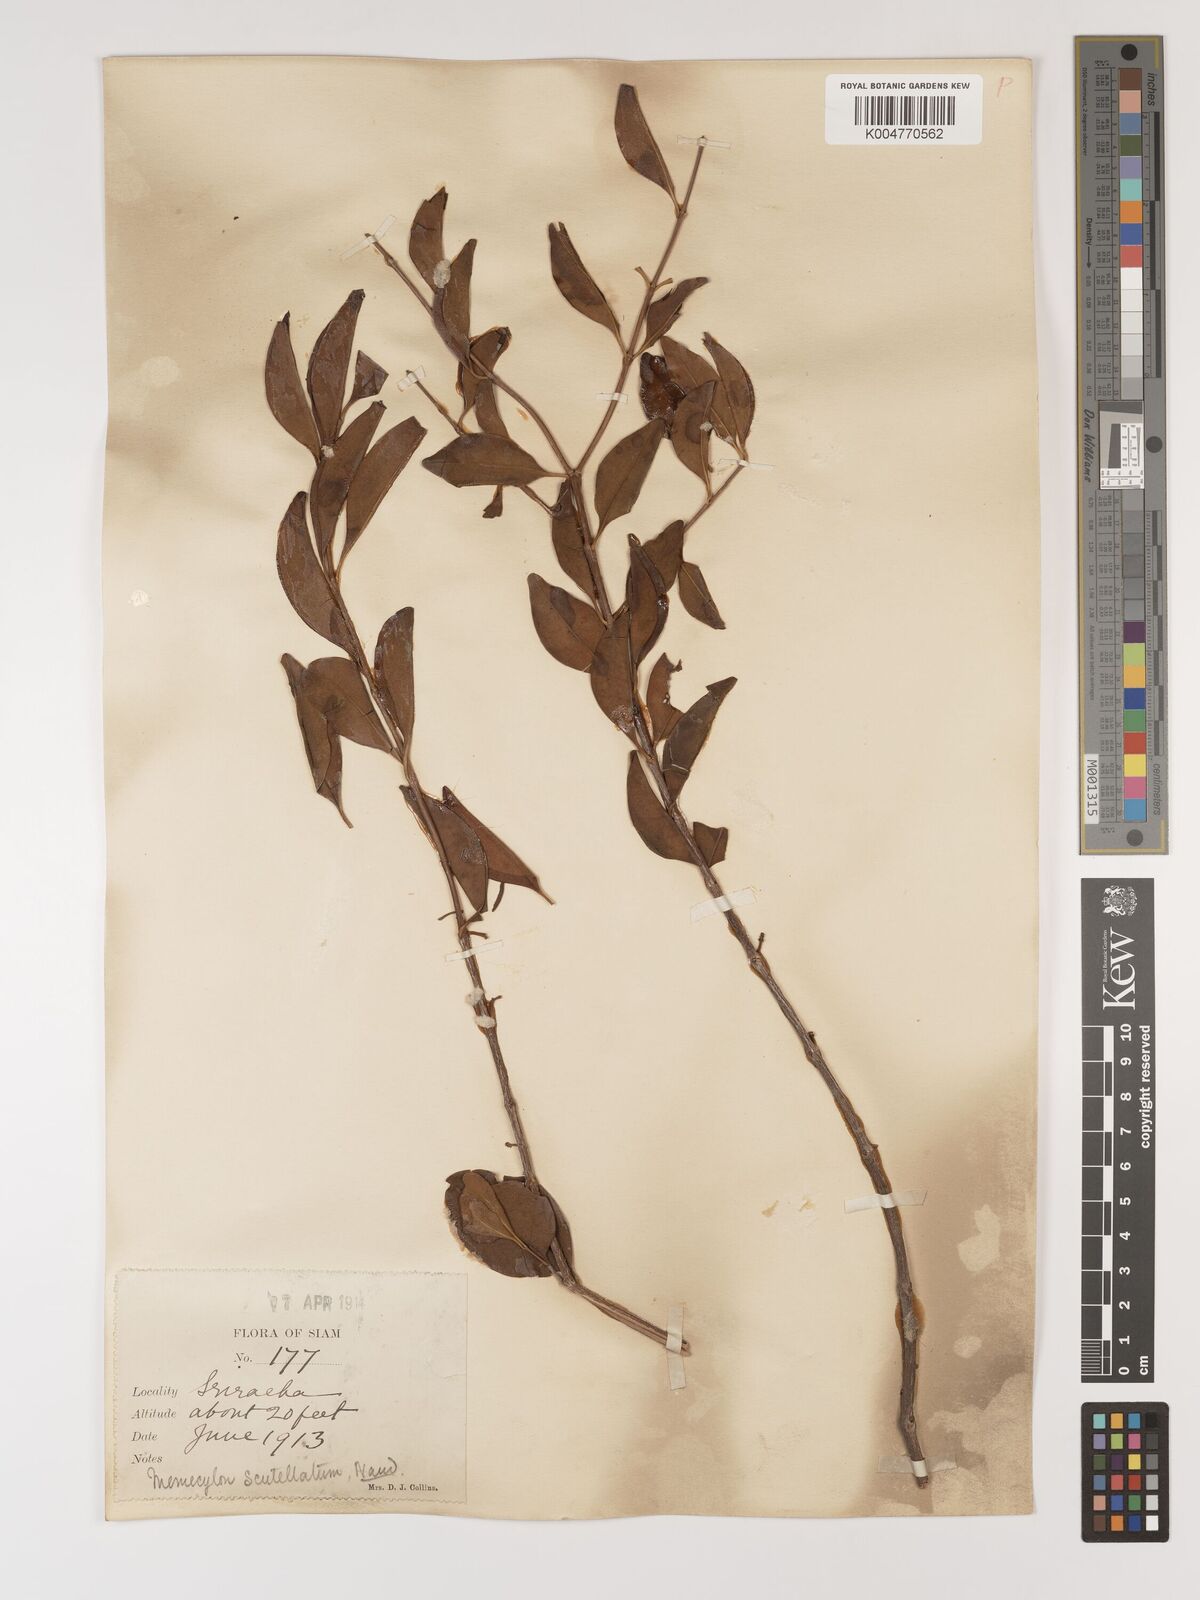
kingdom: Plantae
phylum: Tracheophyta
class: Magnoliopsida
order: Myrtales
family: Melastomataceae
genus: Memecylon
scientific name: Memecylon scutellatum
